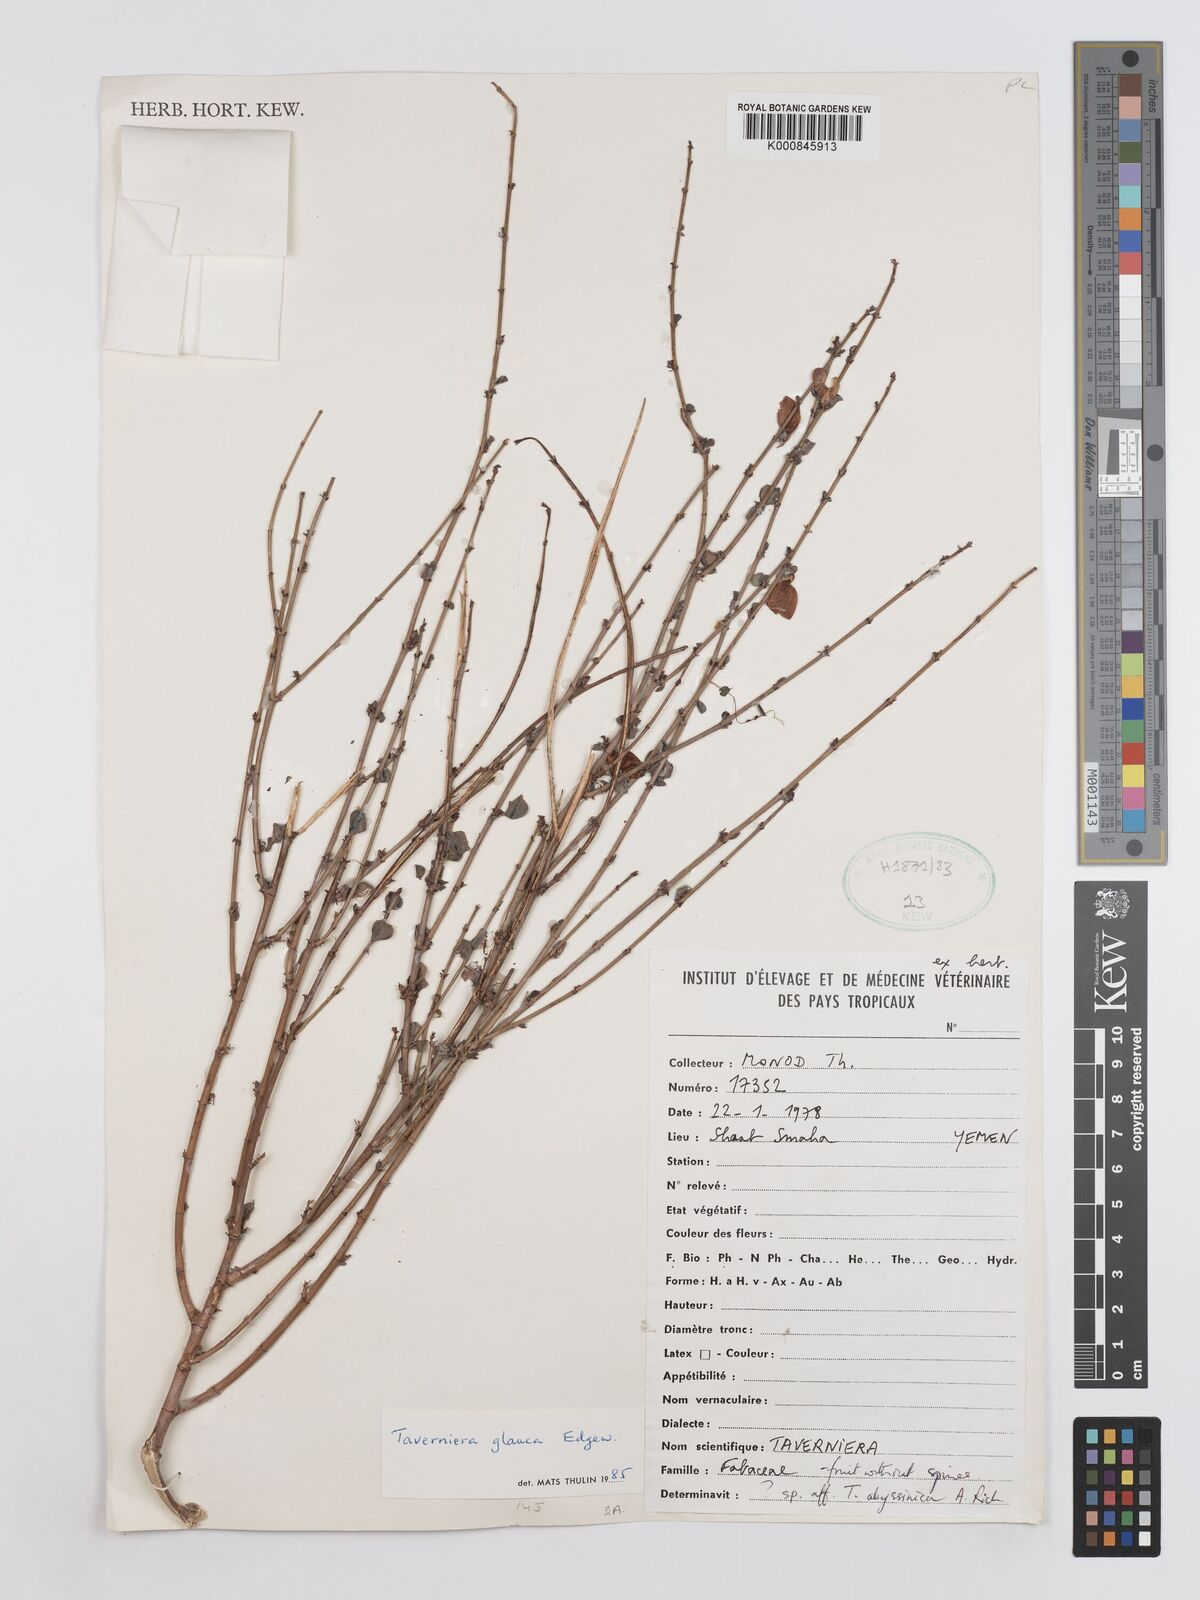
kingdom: Plantae
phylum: Tracheophyta
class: Magnoliopsida
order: Fabales
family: Fabaceae
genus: Taverniera
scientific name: Taverniera glauca
